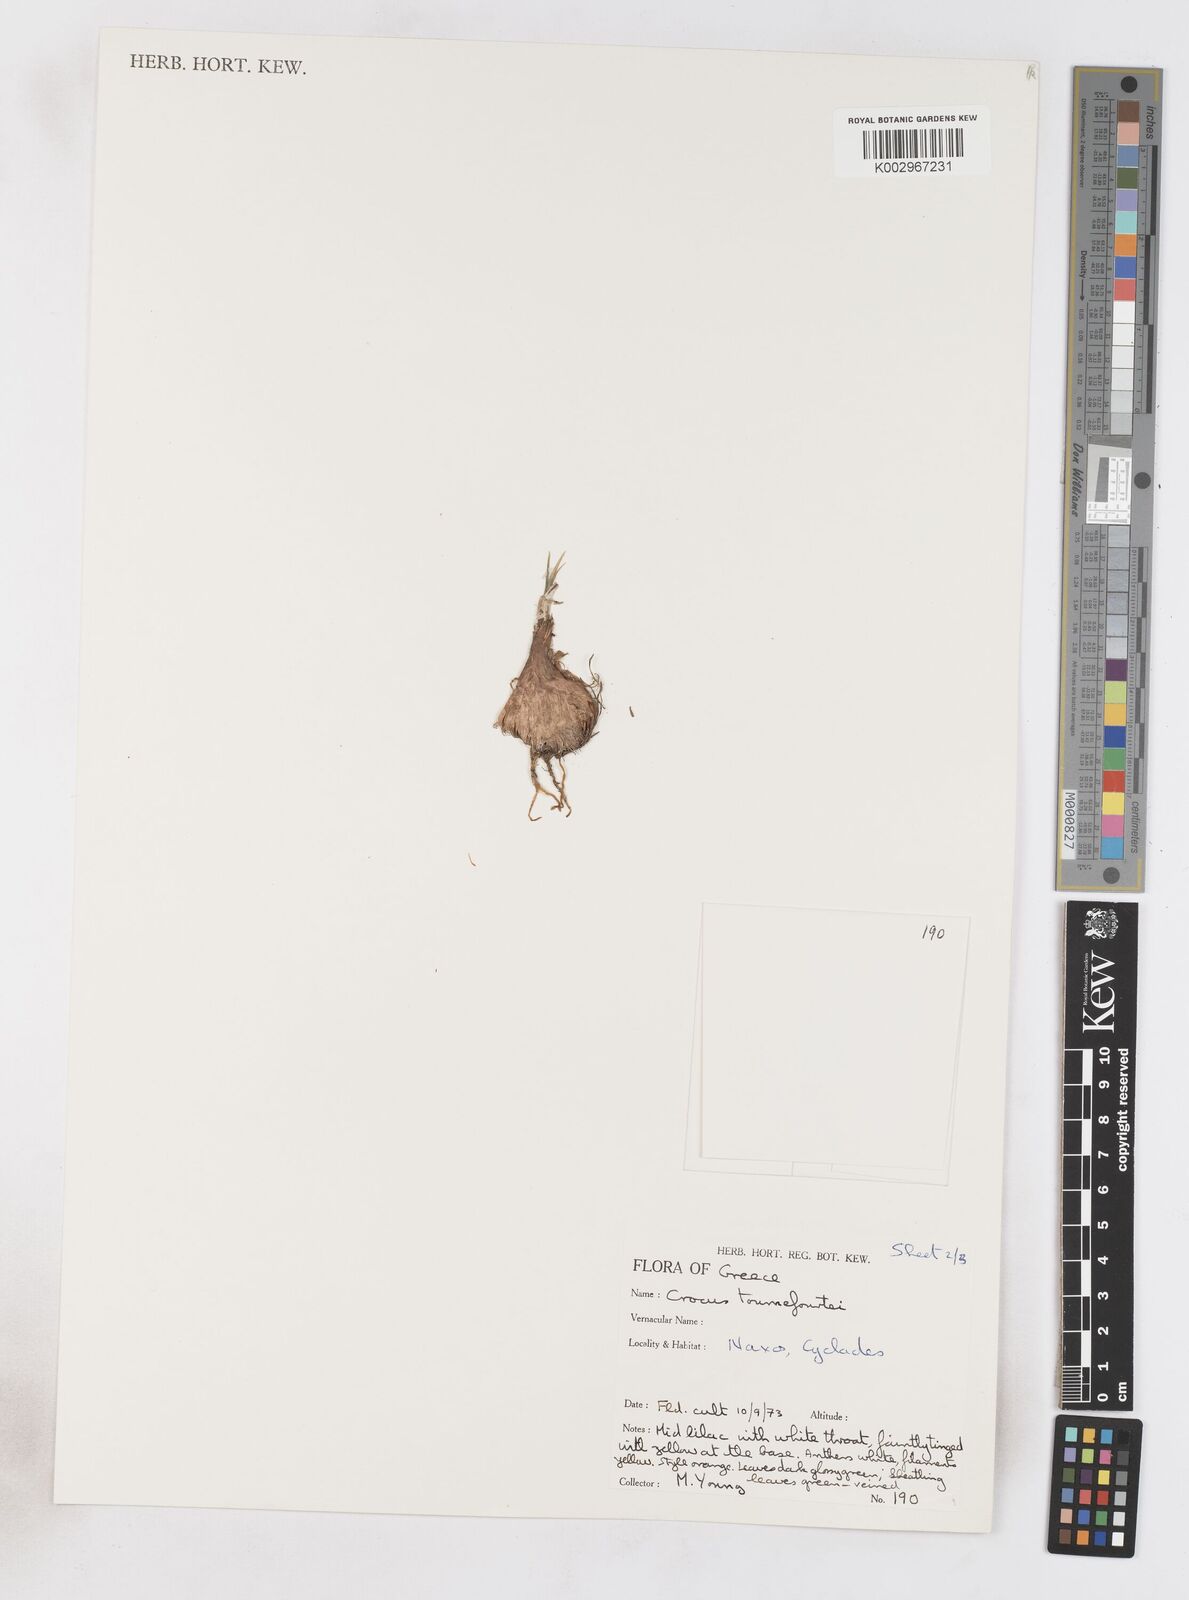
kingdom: Plantae
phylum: Tracheophyta
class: Liliopsida
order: Asparagales
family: Iridaceae
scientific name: Iridaceae
